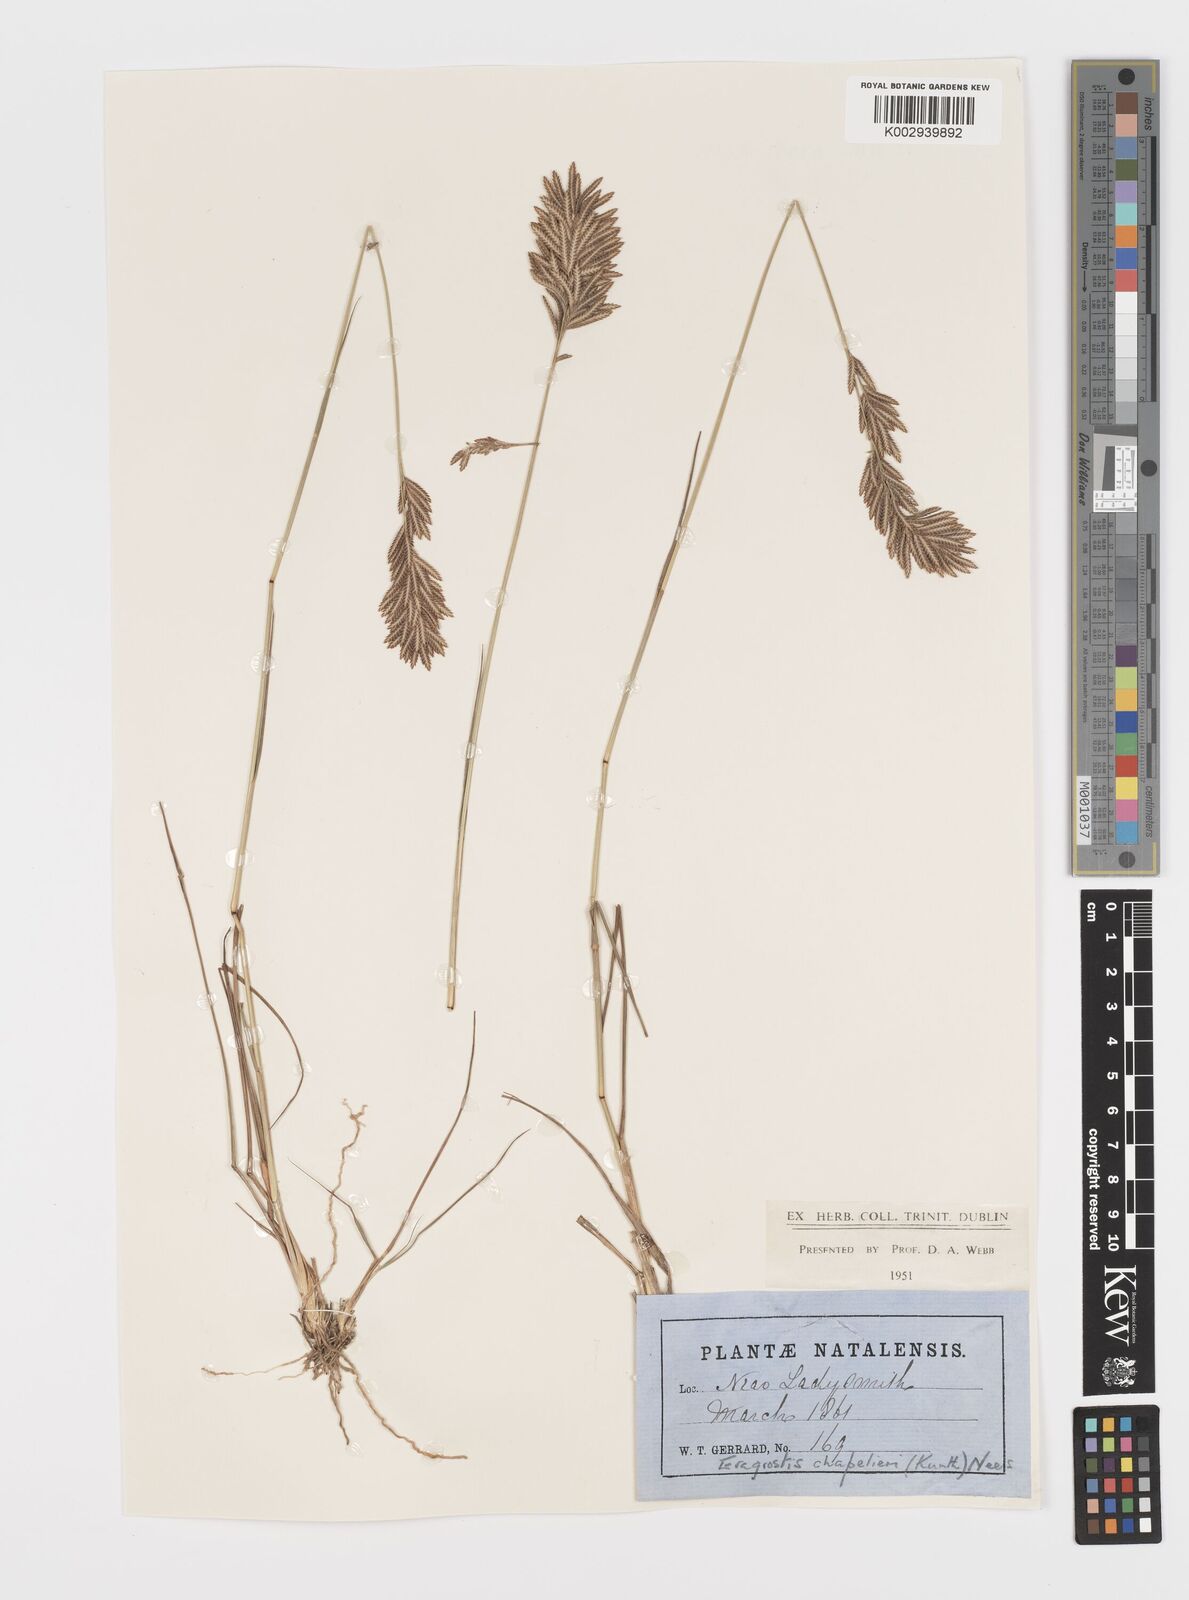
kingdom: Plantae
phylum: Tracheophyta
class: Liliopsida
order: Poales
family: Poaceae
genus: Eragrostis
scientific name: Eragrostis chapelieri
